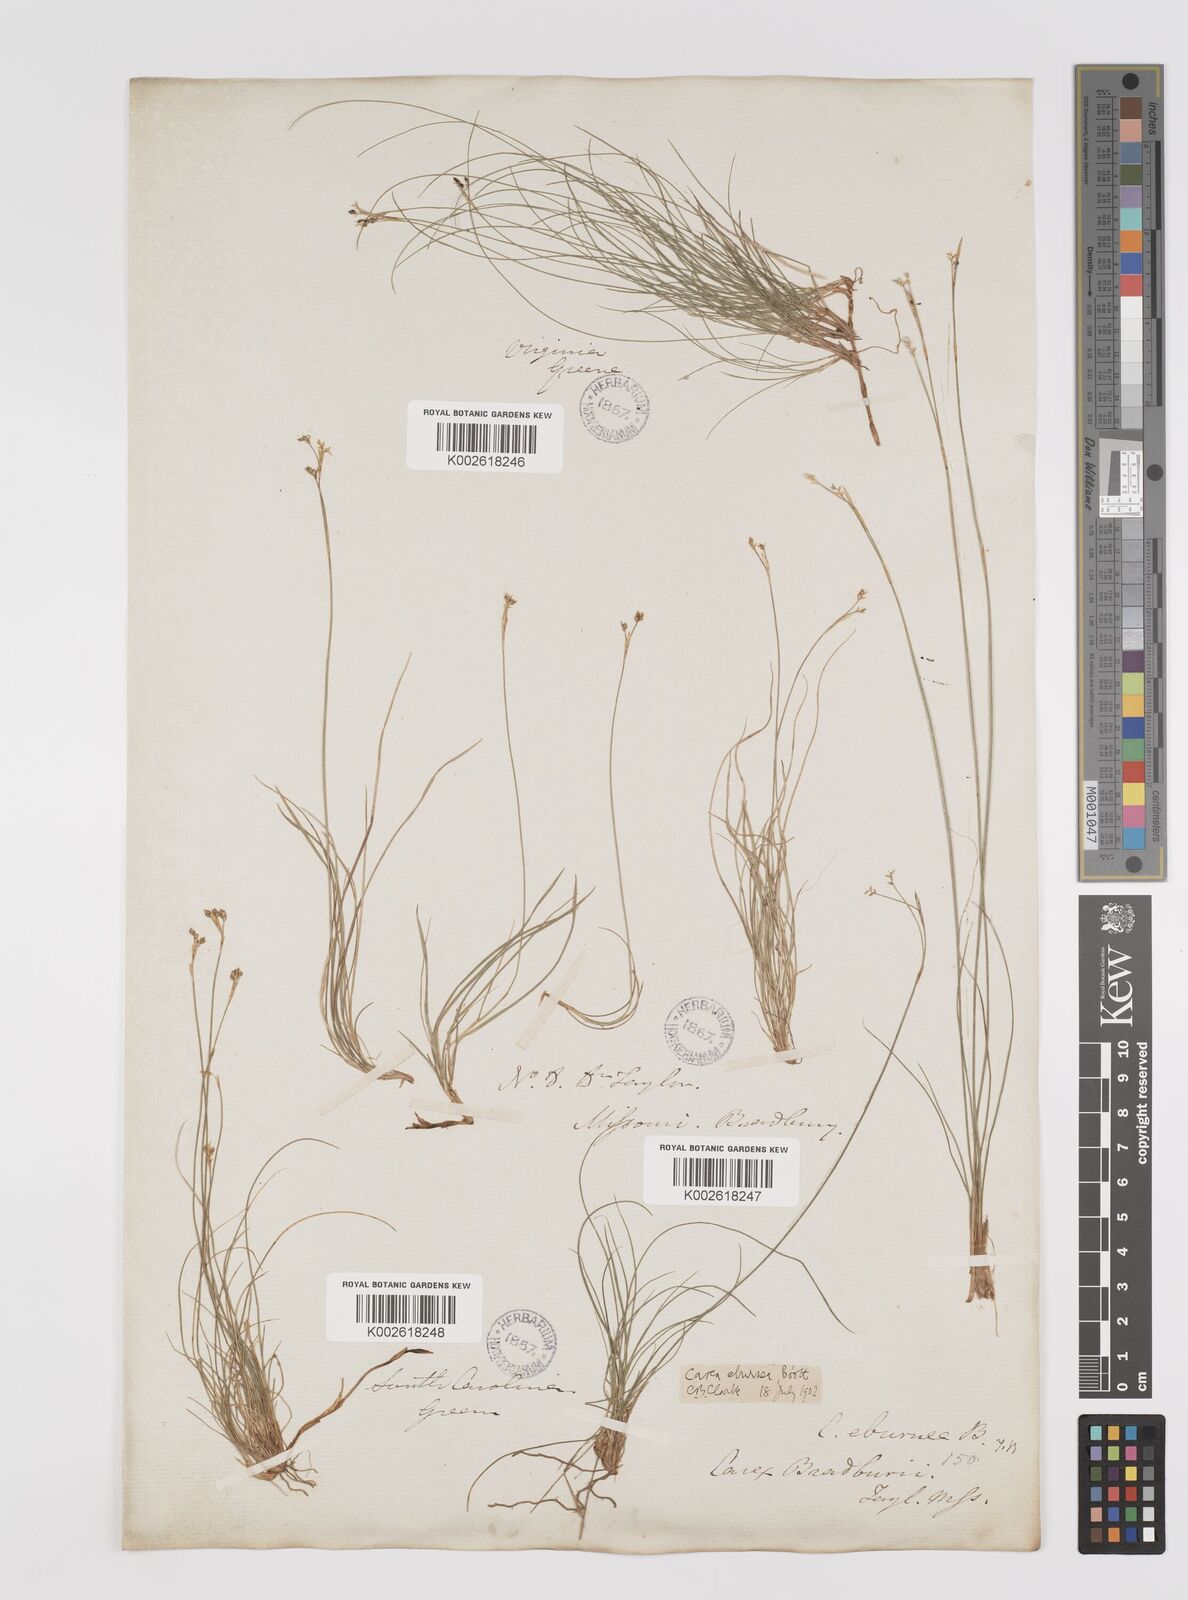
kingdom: Plantae
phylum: Tracheophyta
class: Liliopsida
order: Poales
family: Cyperaceae
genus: Carex
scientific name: Carex eburnea
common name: Bristle-leaved sedge
